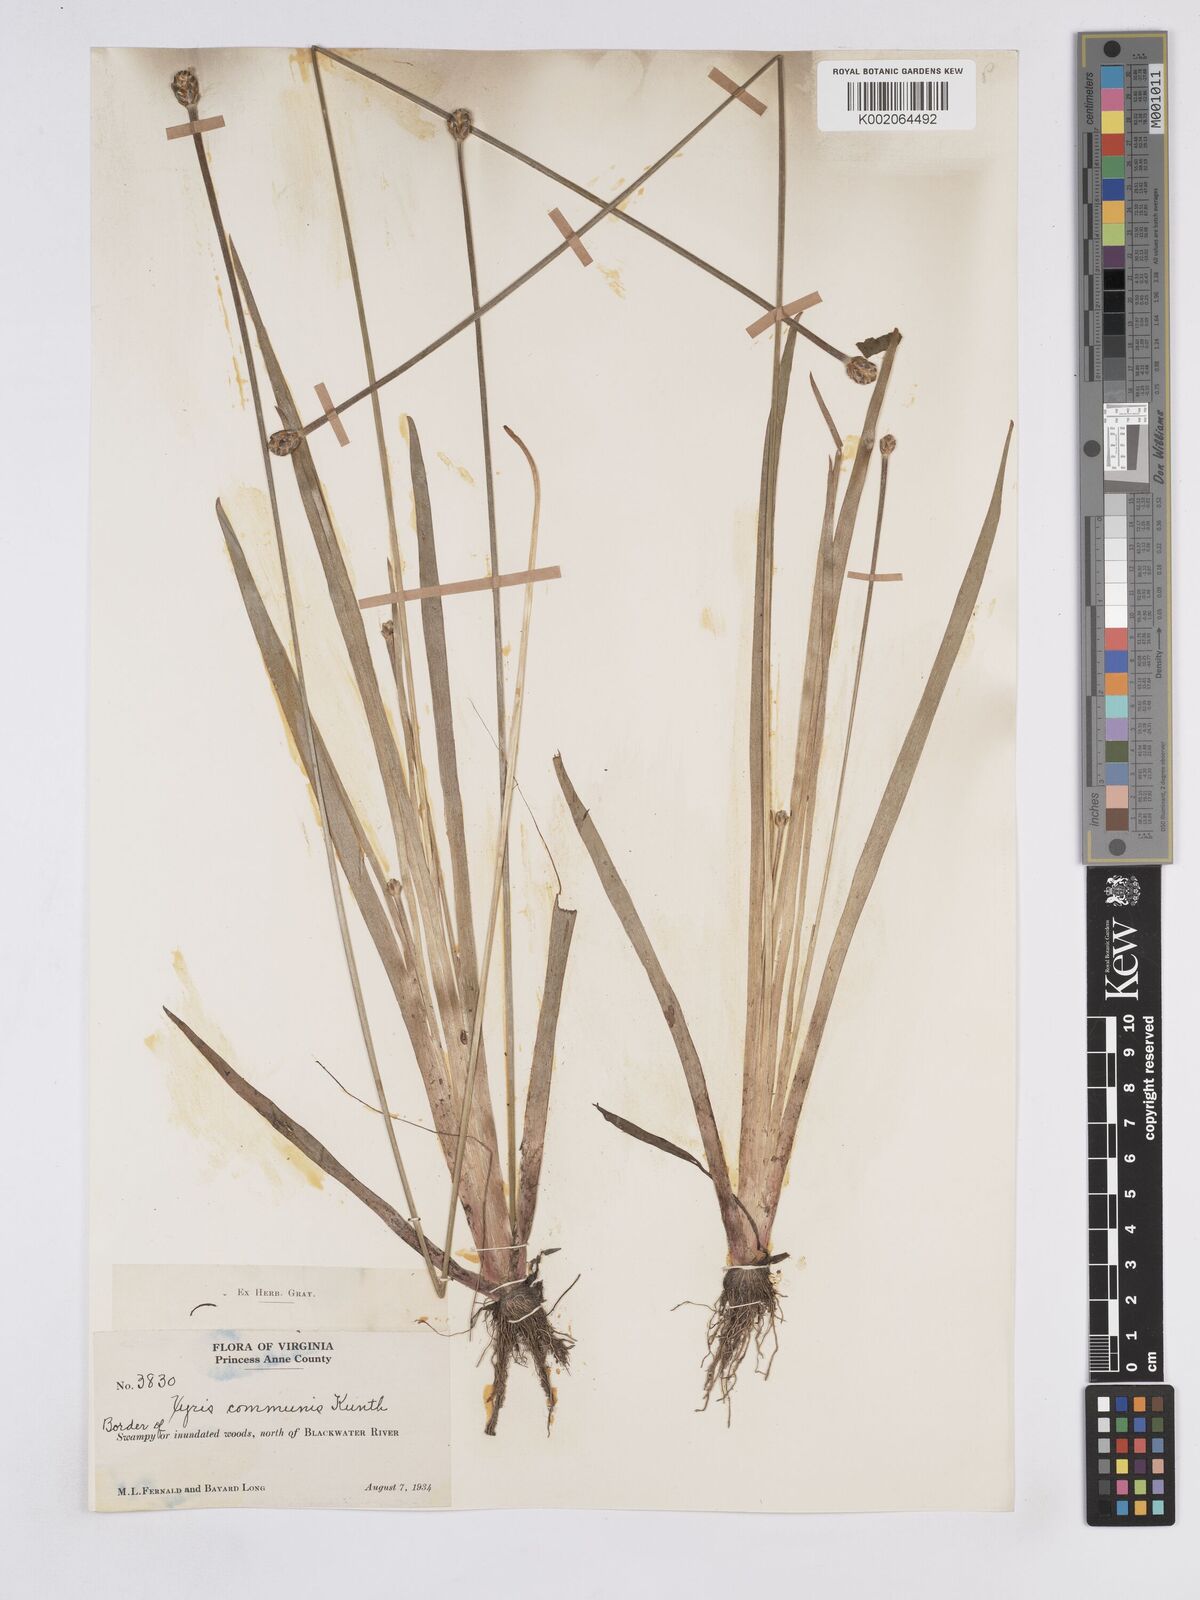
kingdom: Plantae
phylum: Tracheophyta
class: Liliopsida
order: Poales
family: Xyridaceae
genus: Xyris
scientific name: Xyris jupicai
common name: Richard's yelloweyed grass
